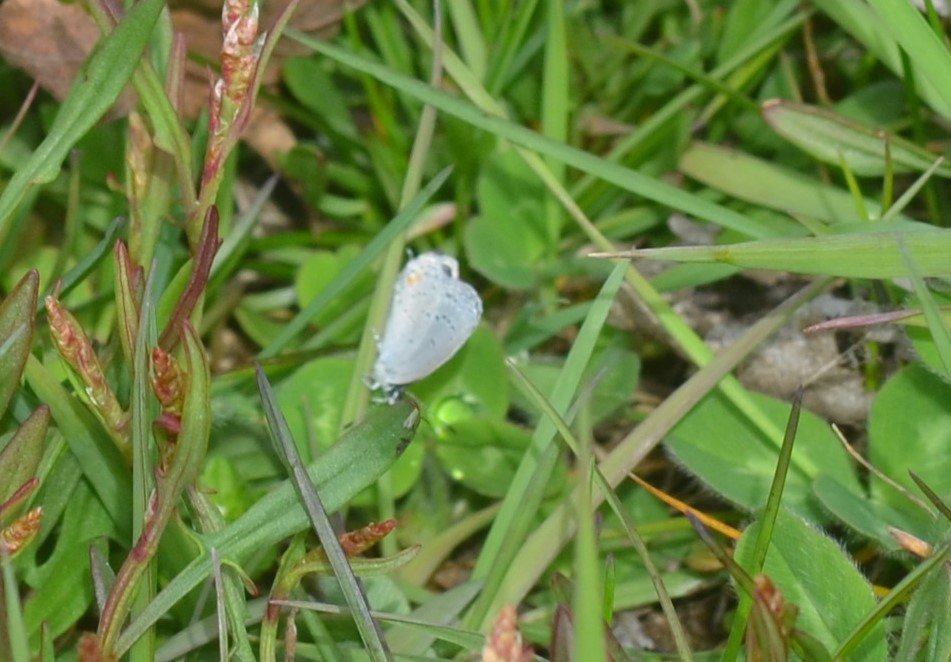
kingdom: Animalia
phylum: Arthropoda
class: Insecta
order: Lepidoptera
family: Lycaenidae
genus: Elkalyce
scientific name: Elkalyce comyntas
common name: Eastern Tailed-Blue
